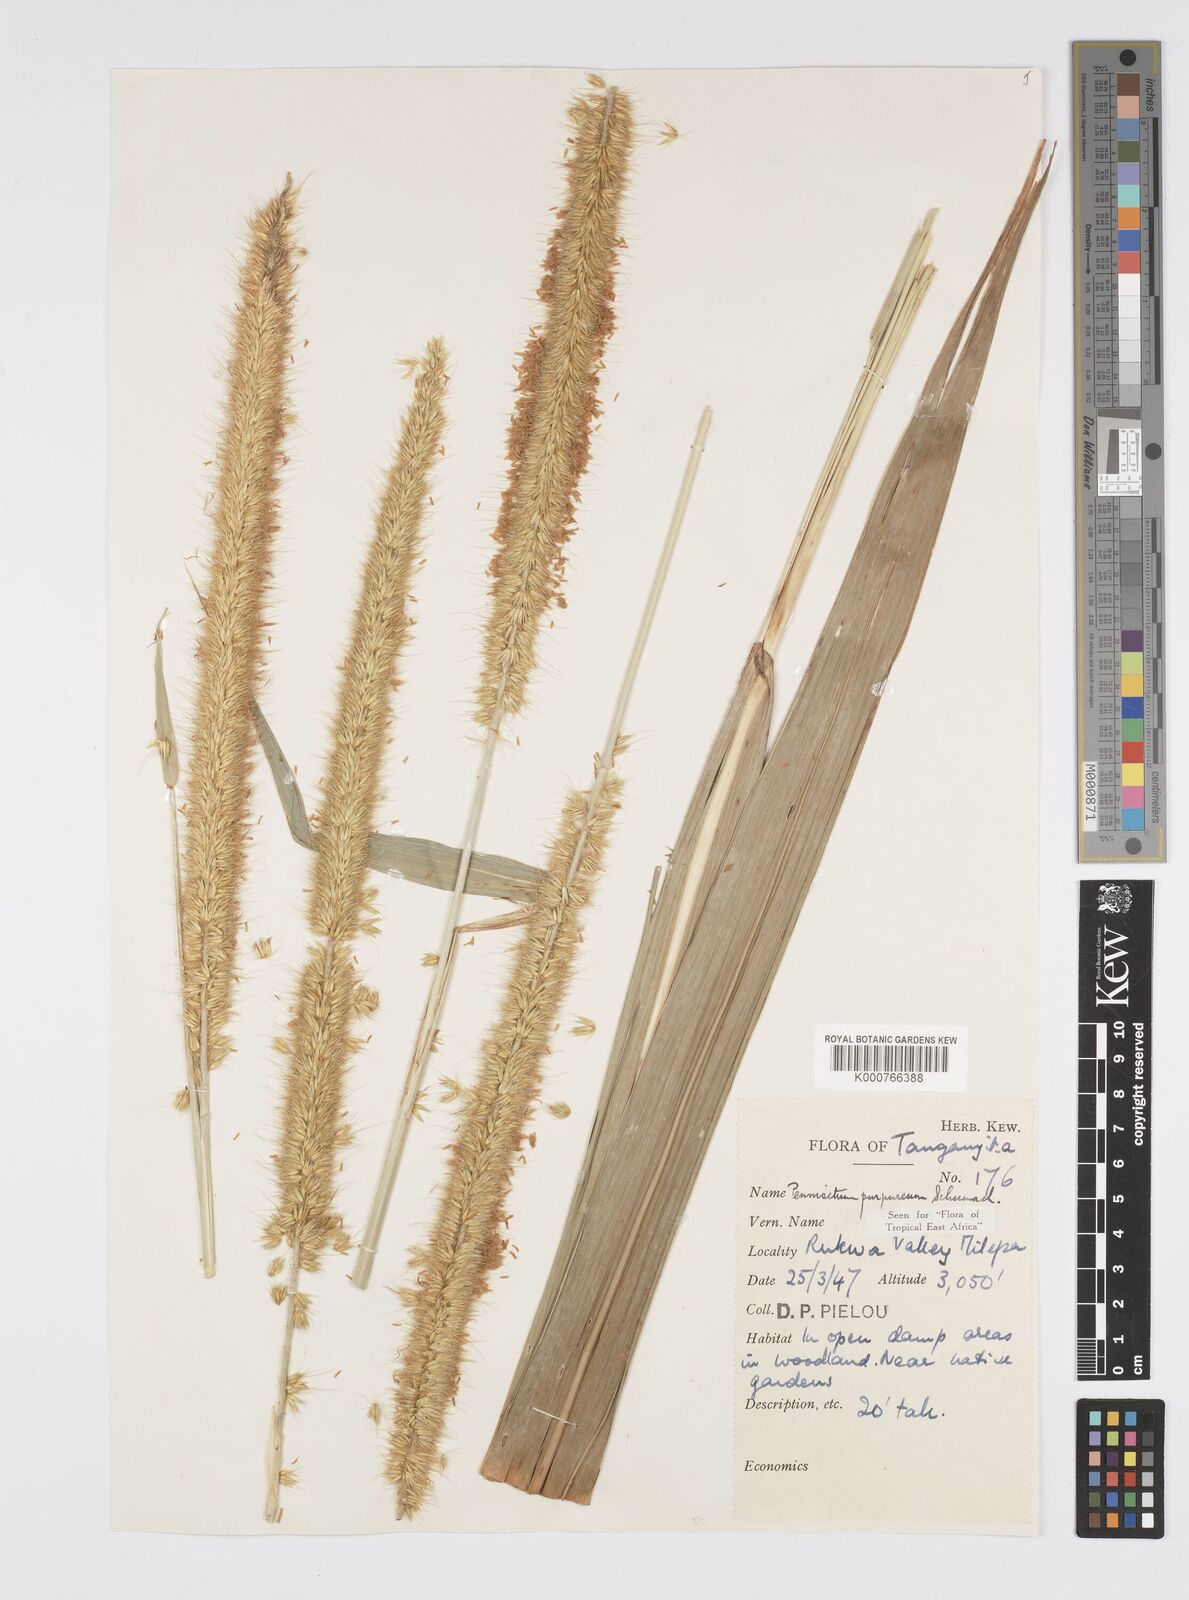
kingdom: Plantae
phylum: Tracheophyta
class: Liliopsida
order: Poales
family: Poaceae
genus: Cenchrus
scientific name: Cenchrus purpureus
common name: Elephant grass
